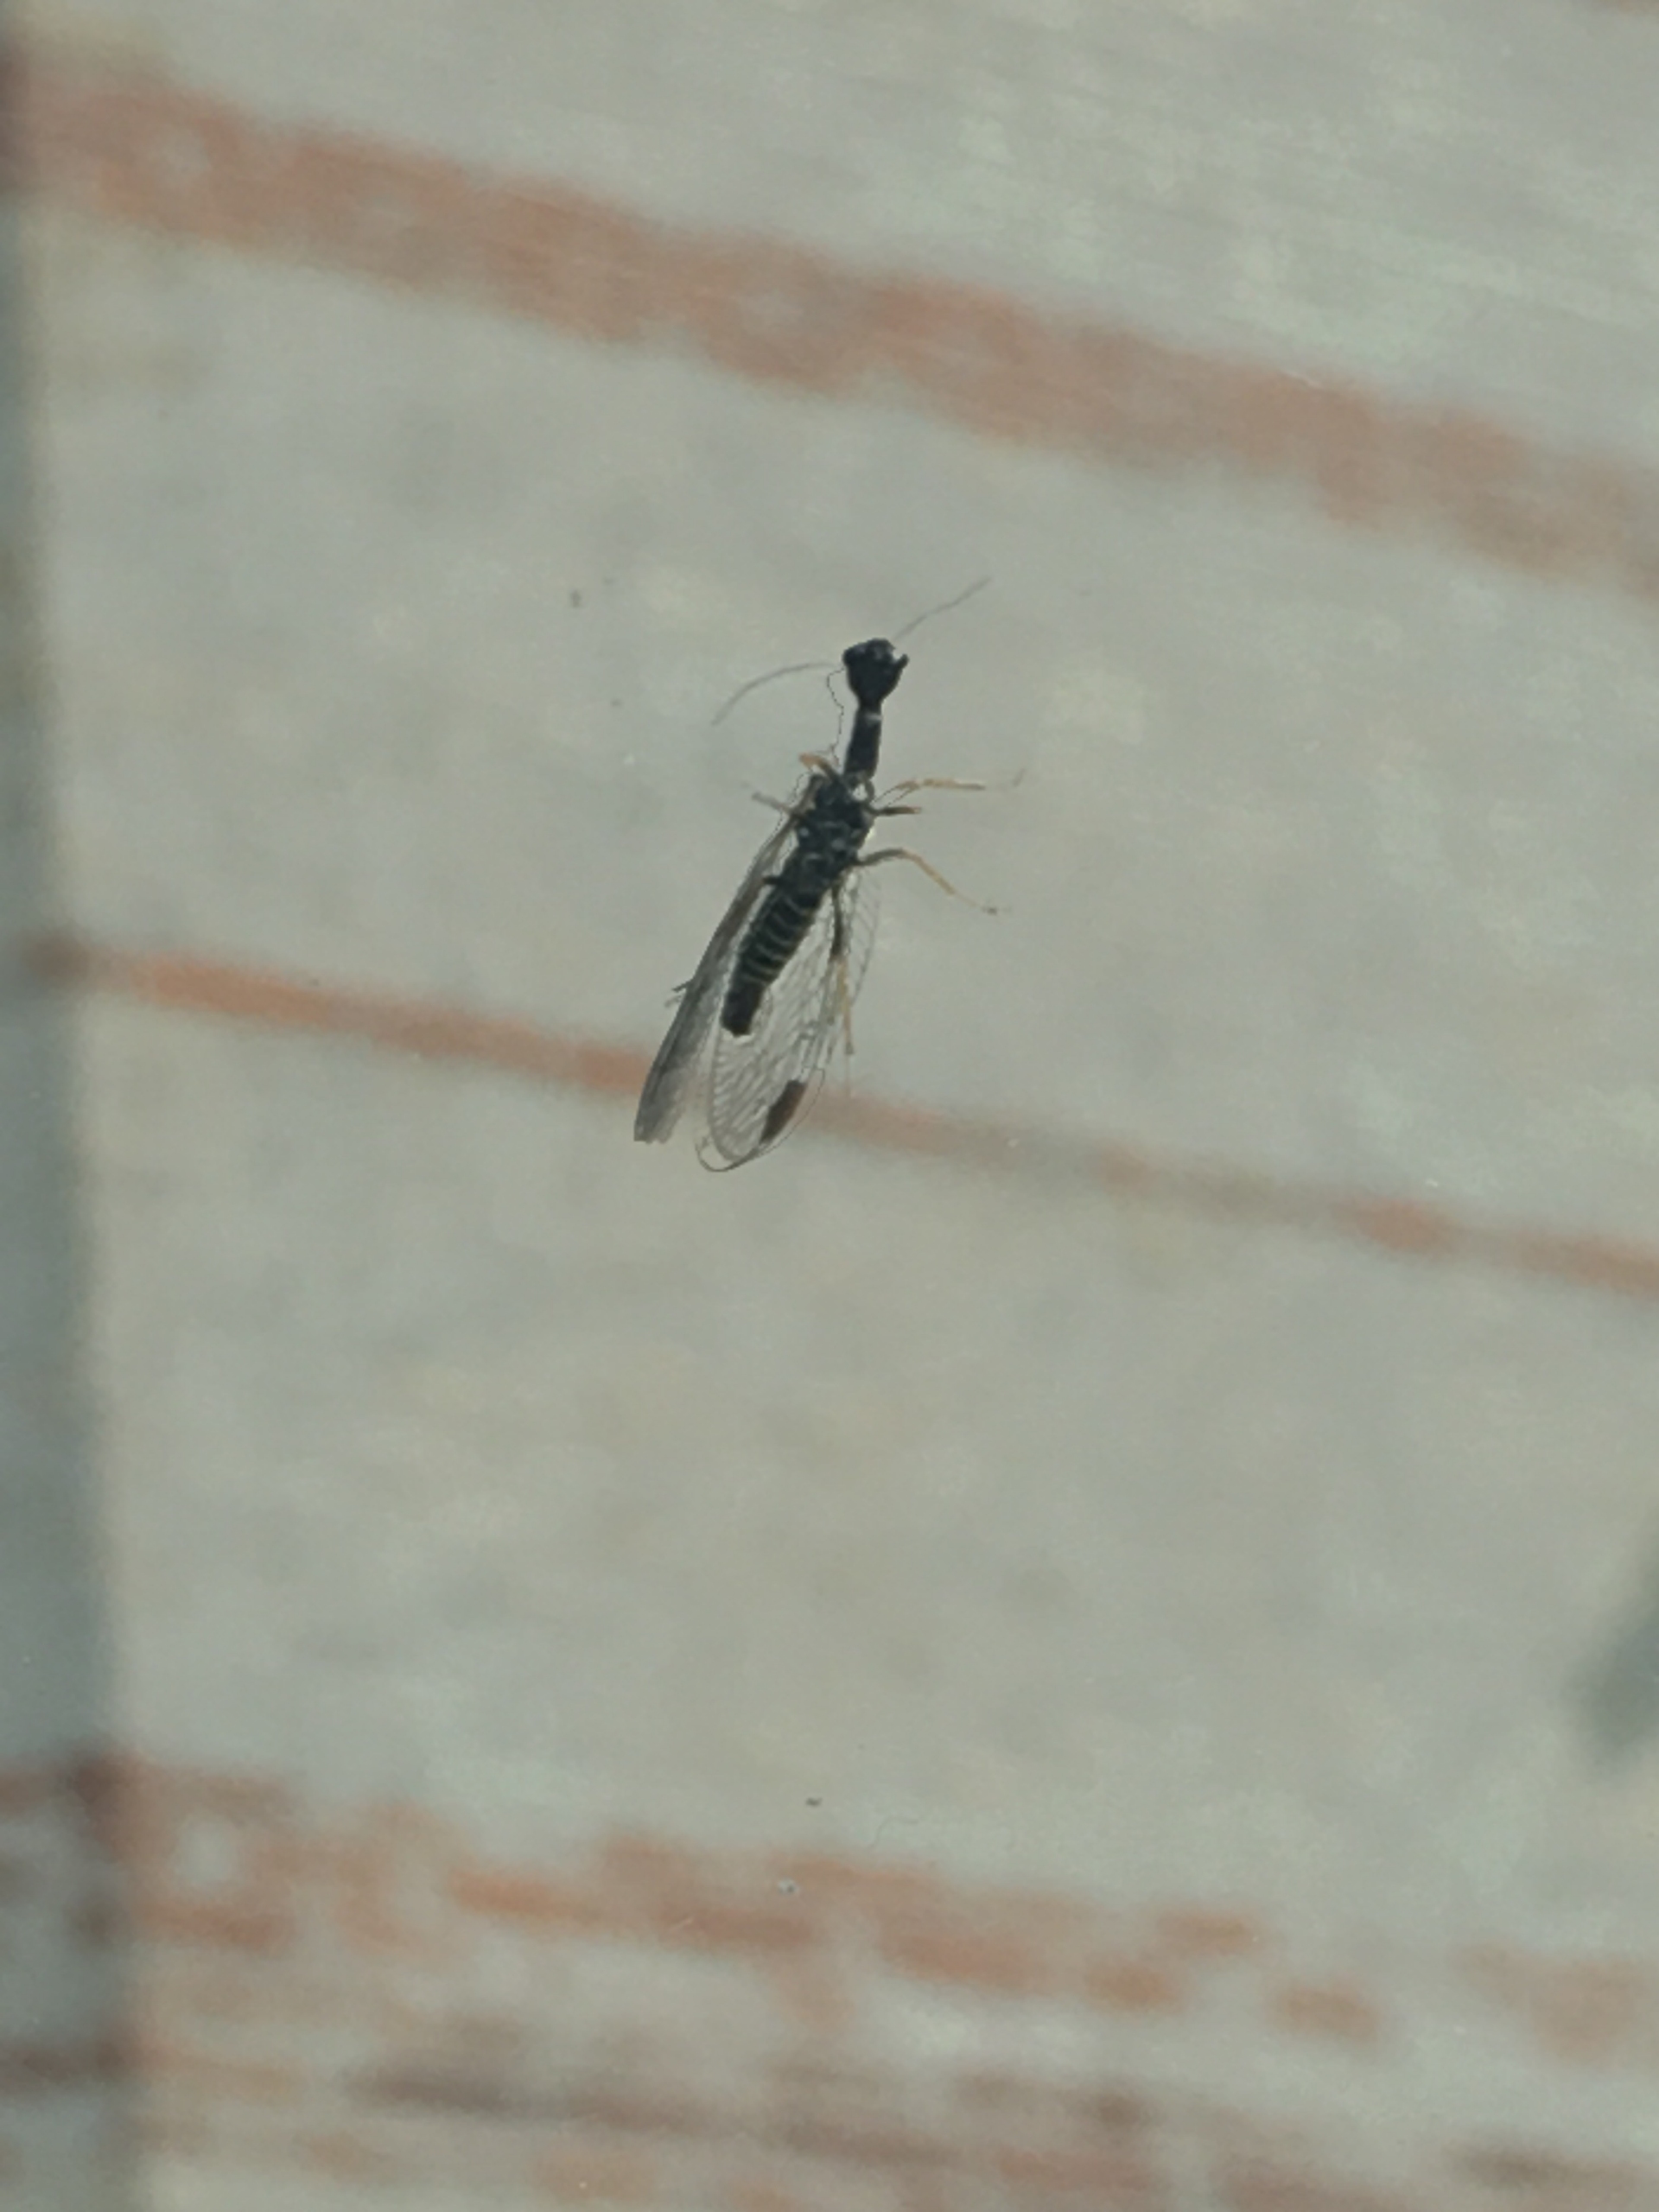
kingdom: Animalia
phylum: Arthropoda
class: Insecta
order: Raphidioptera
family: Raphidiidae
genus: Phaeostigma
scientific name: Phaeostigma notatum
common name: Stor kamelhalsflue
